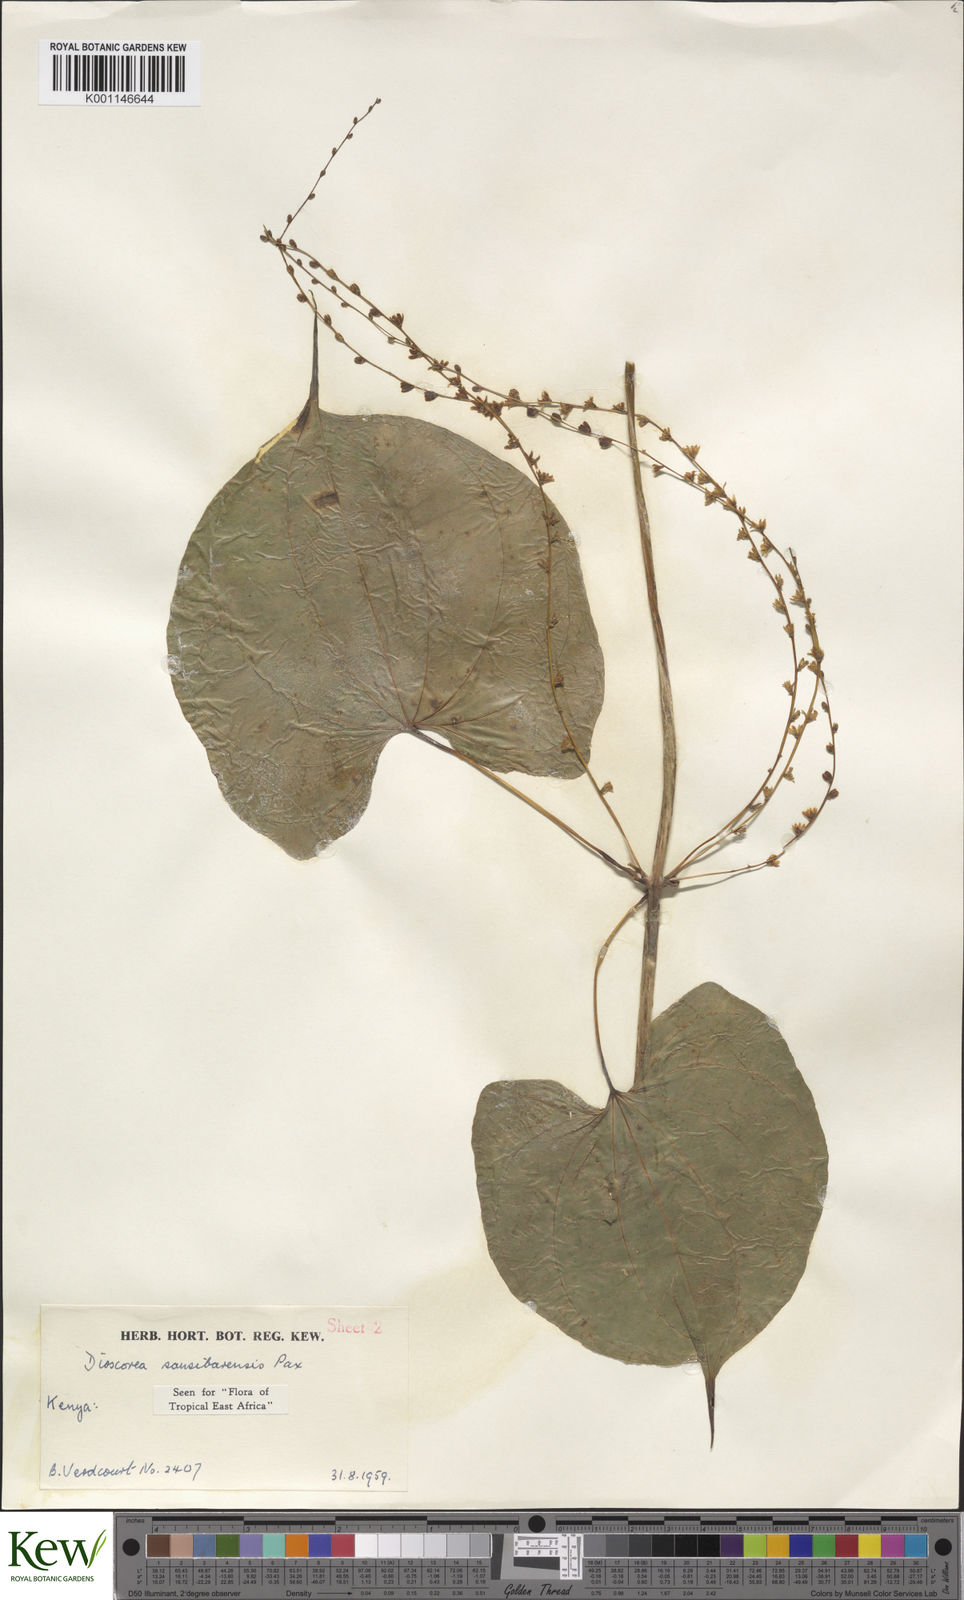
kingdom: Plantae
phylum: Tracheophyta
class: Liliopsida
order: Dioscoreales
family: Dioscoreaceae
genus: Dioscorea
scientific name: Dioscorea sansibarensis
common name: Zanzibar yam
